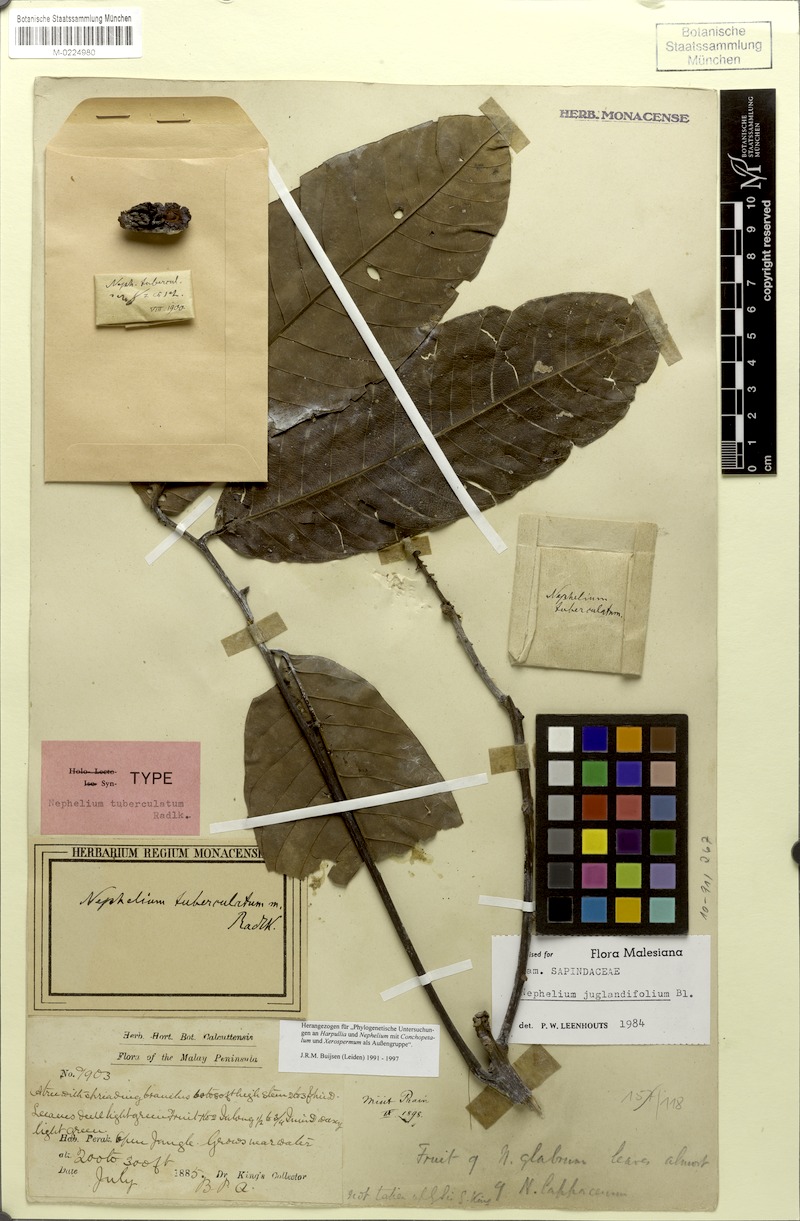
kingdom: Plantae
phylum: Tracheophyta
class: Magnoliopsida
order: Sapindales
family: Sapindaceae
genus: Nephelium
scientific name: Nephelium juglandifolium
